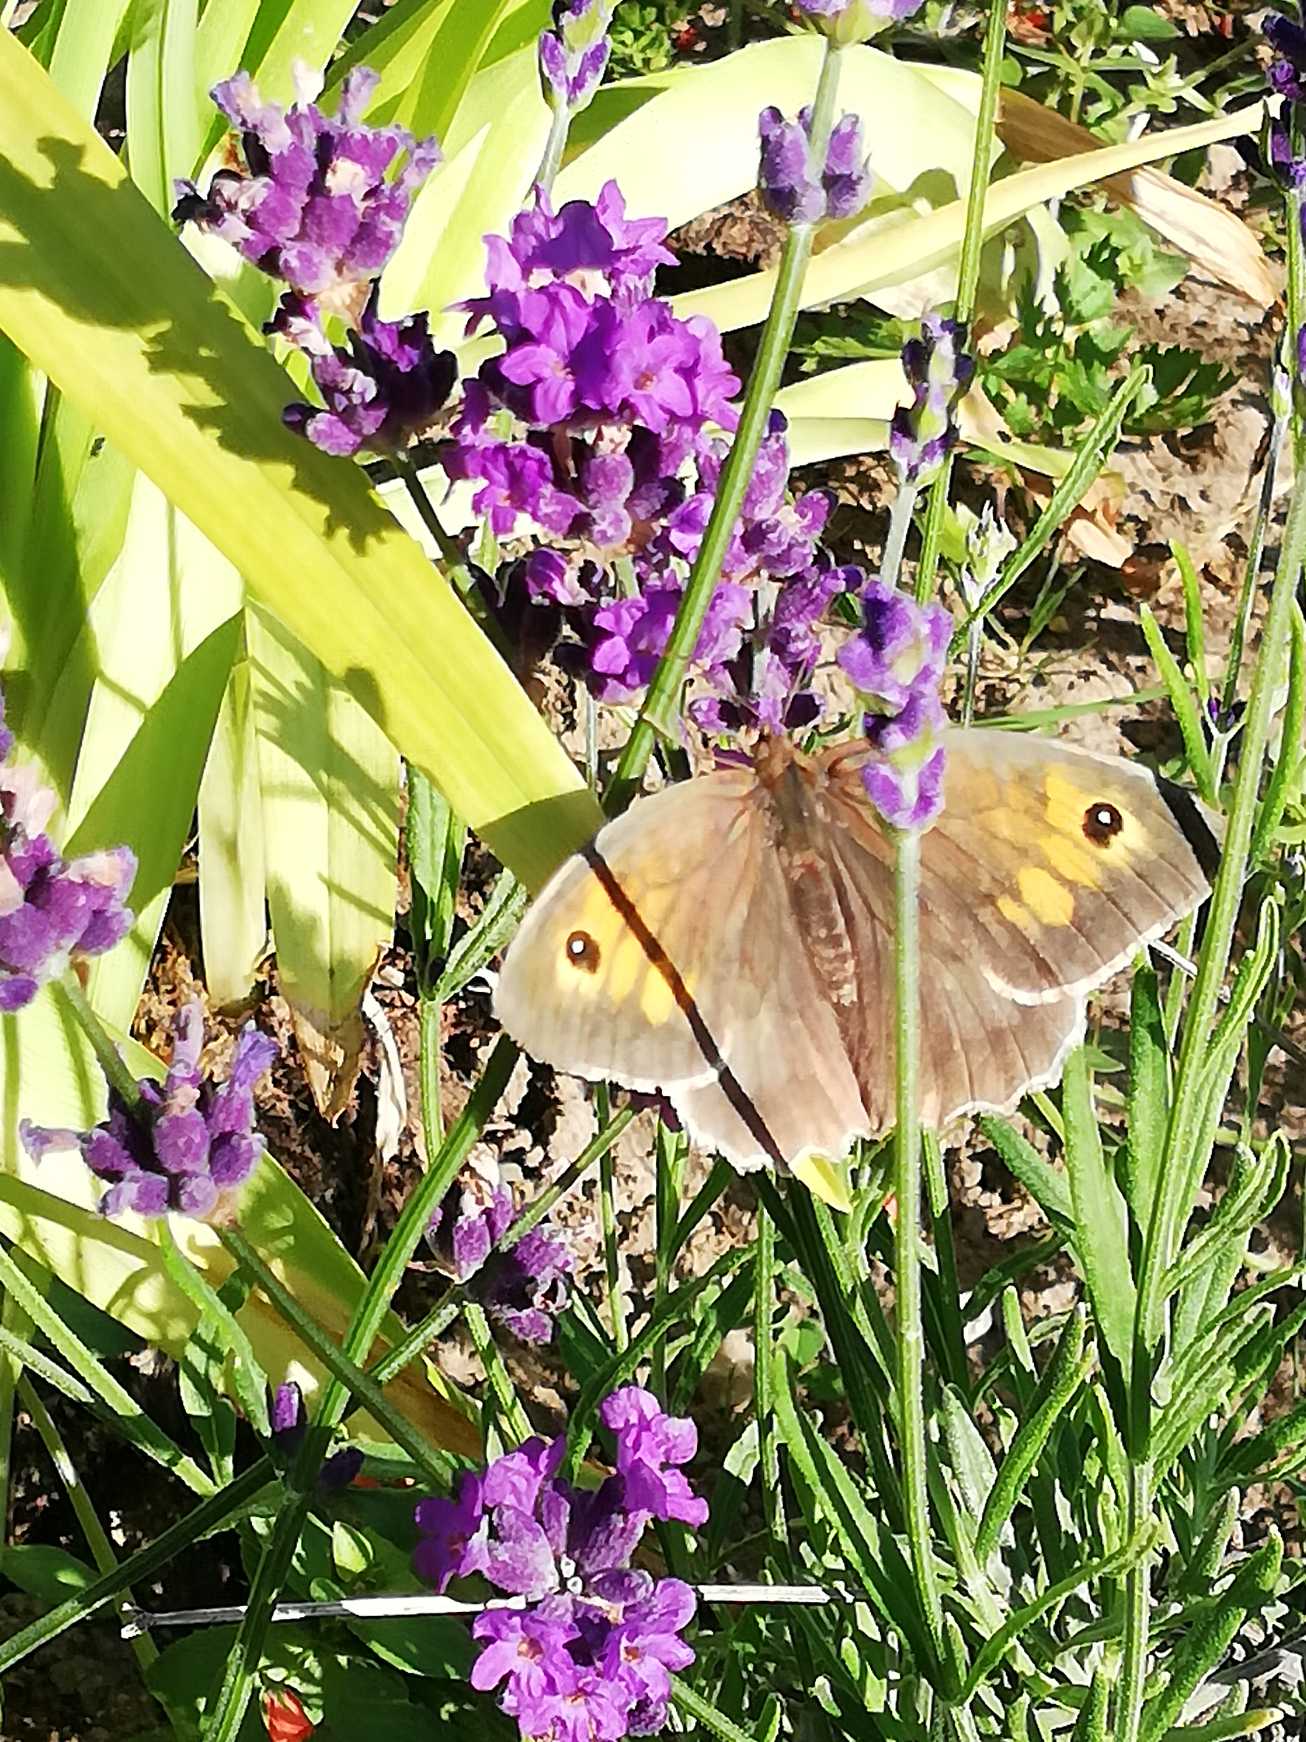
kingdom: Animalia
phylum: Arthropoda
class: Insecta
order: Lepidoptera
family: Nymphalidae
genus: Maniola
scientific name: Maniola jurtina
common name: Græsrandøje
